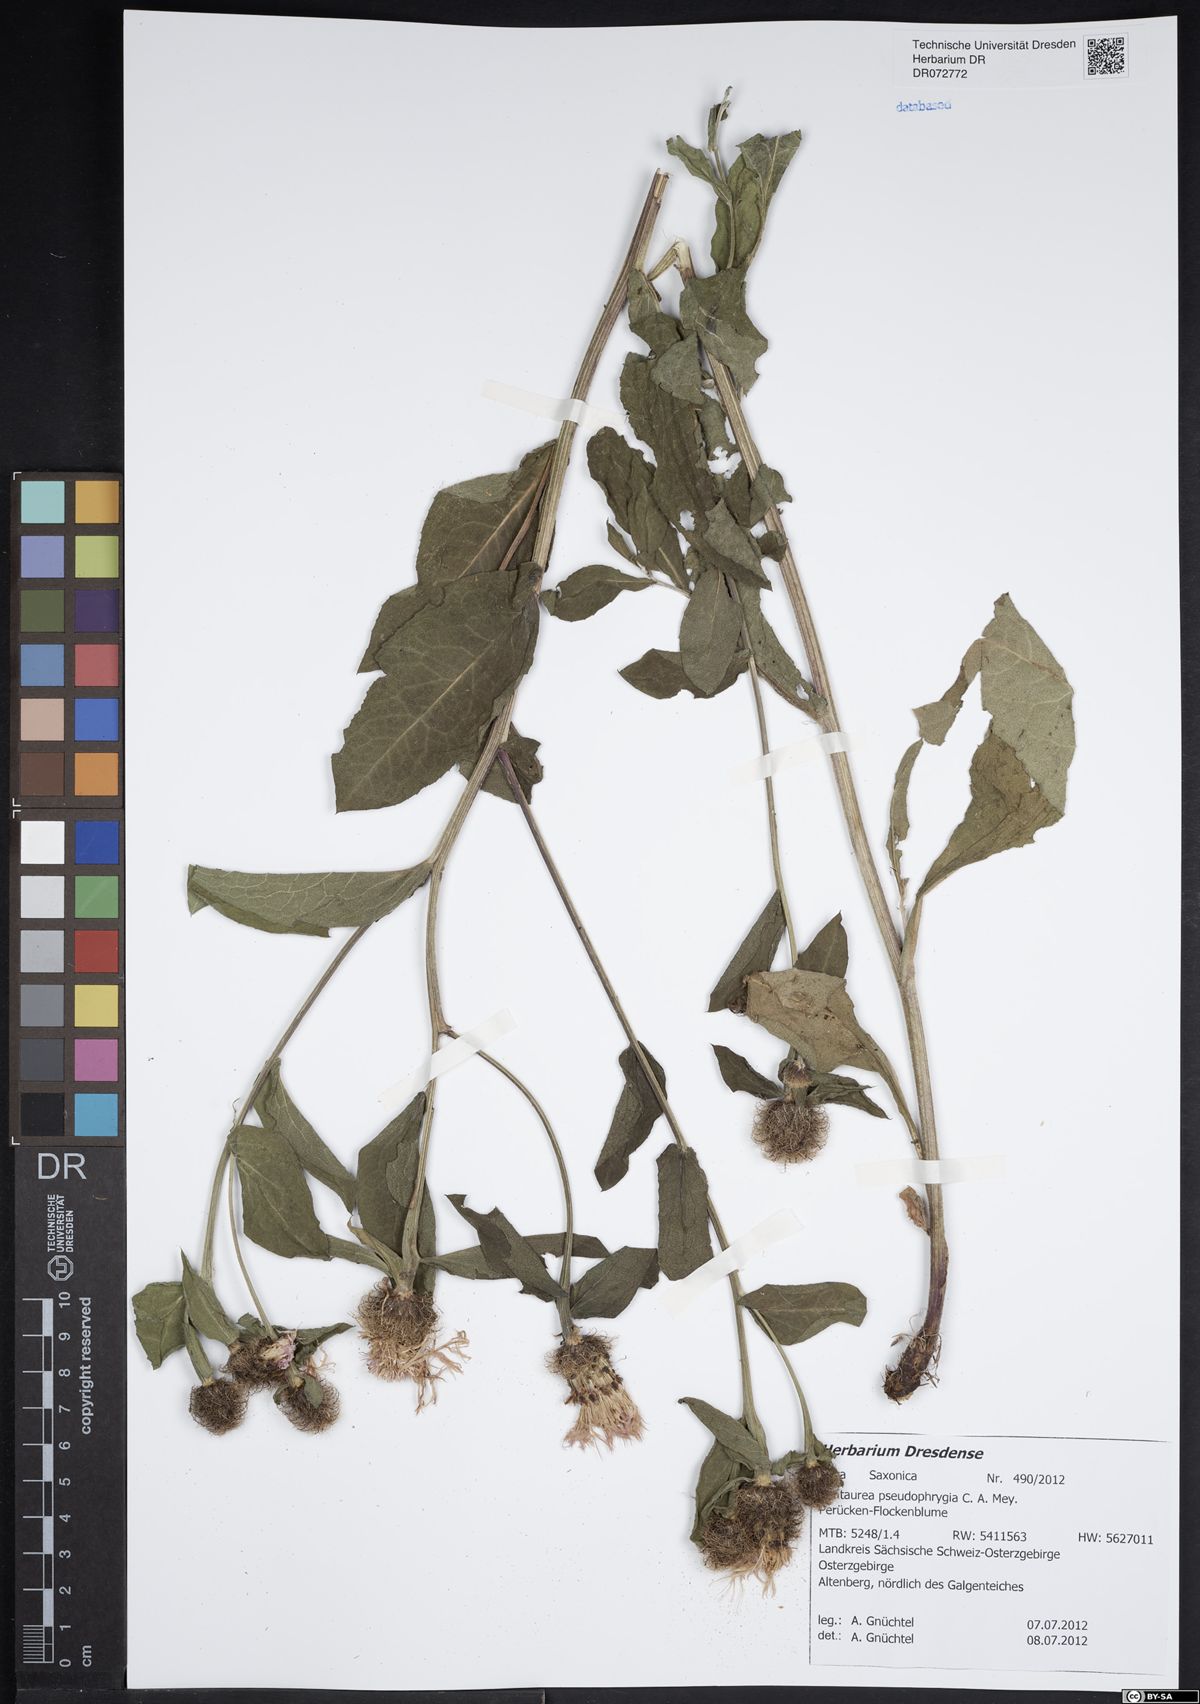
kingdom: Plantae
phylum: Tracheophyta
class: Magnoliopsida
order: Asterales
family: Asteraceae
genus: Centaurea
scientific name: Centaurea pseudophrygia
